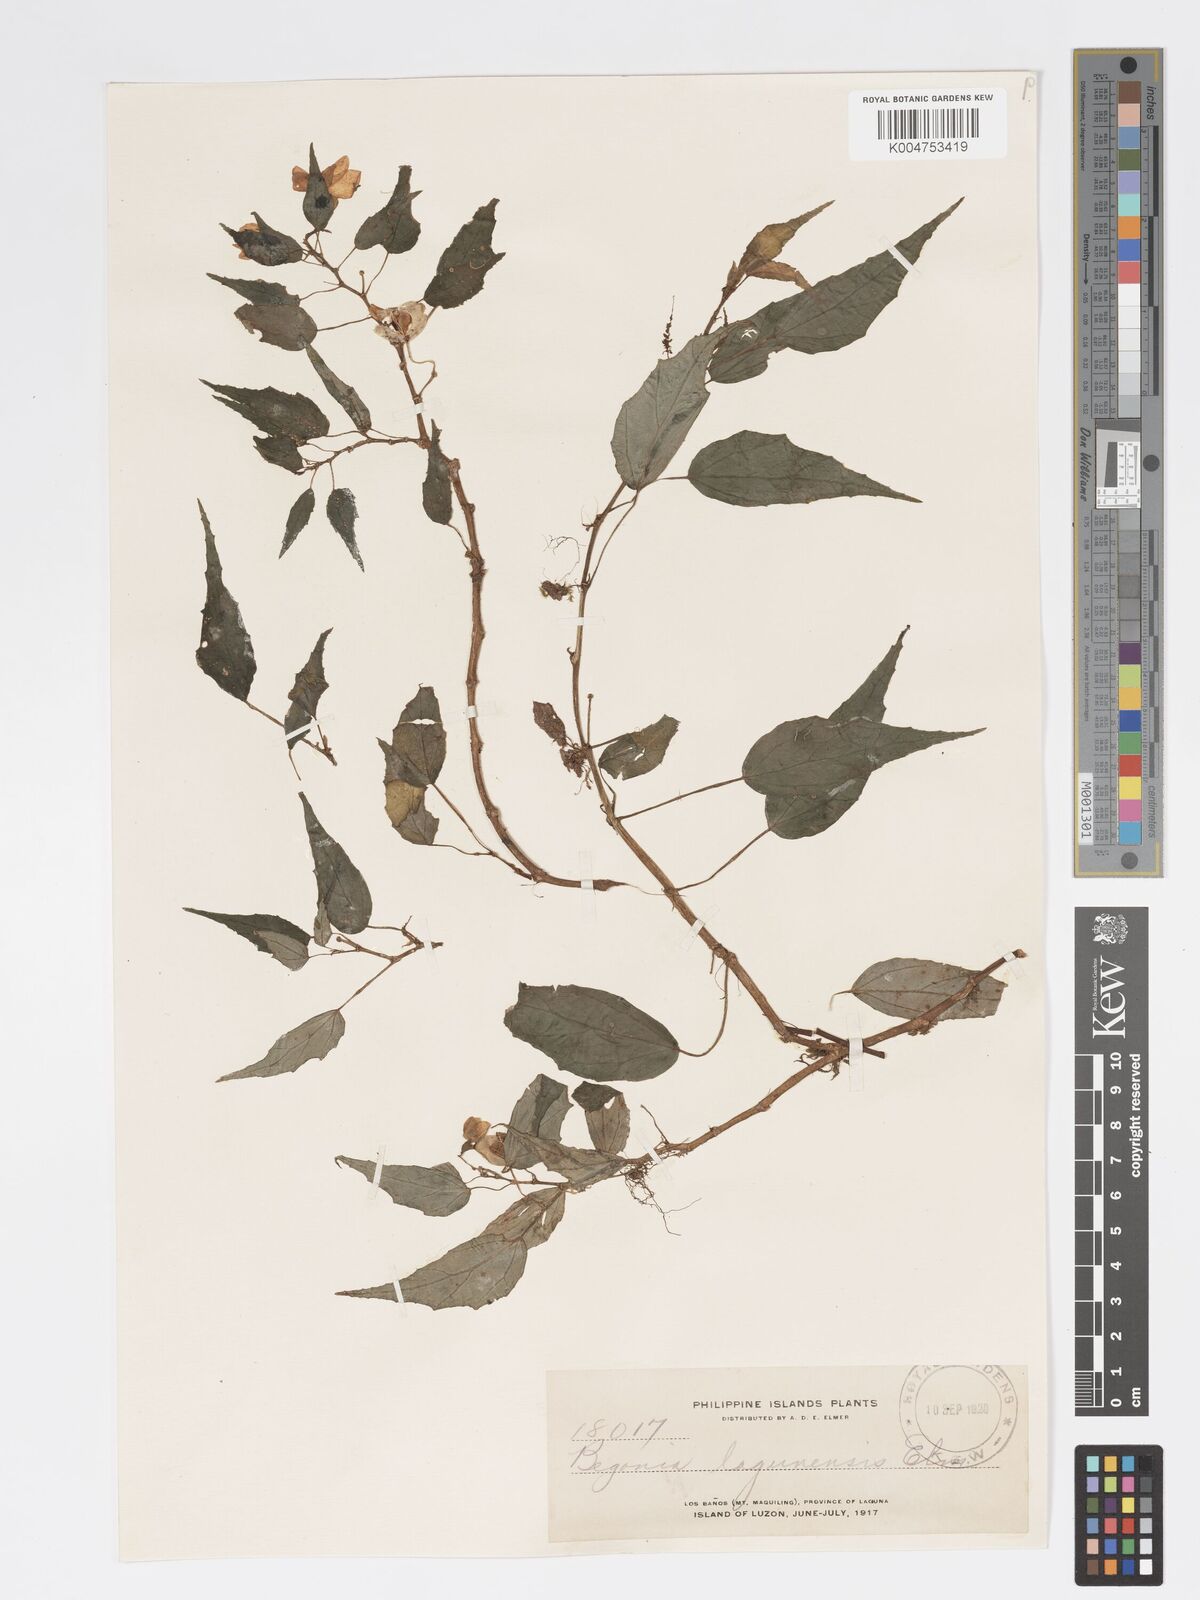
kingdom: Plantae
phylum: Tracheophyta
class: Magnoliopsida
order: Cucurbitales
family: Begoniaceae
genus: Begonia
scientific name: Begonia lagunensis
